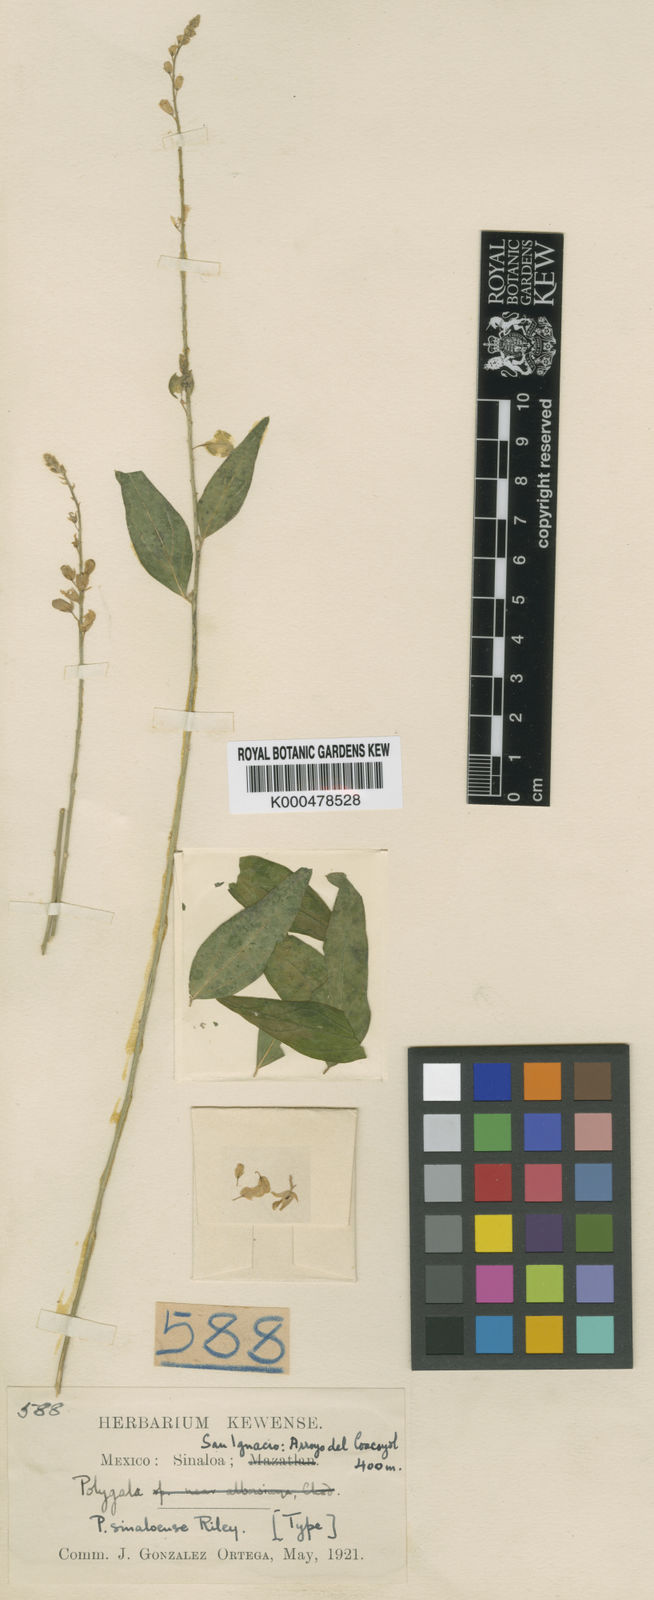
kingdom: Plantae
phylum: Tracheophyta
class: Magnoliopsida
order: Fabales
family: Polygalaceae
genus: Hebecarpa
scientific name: Hebecarpa rivinifolia
